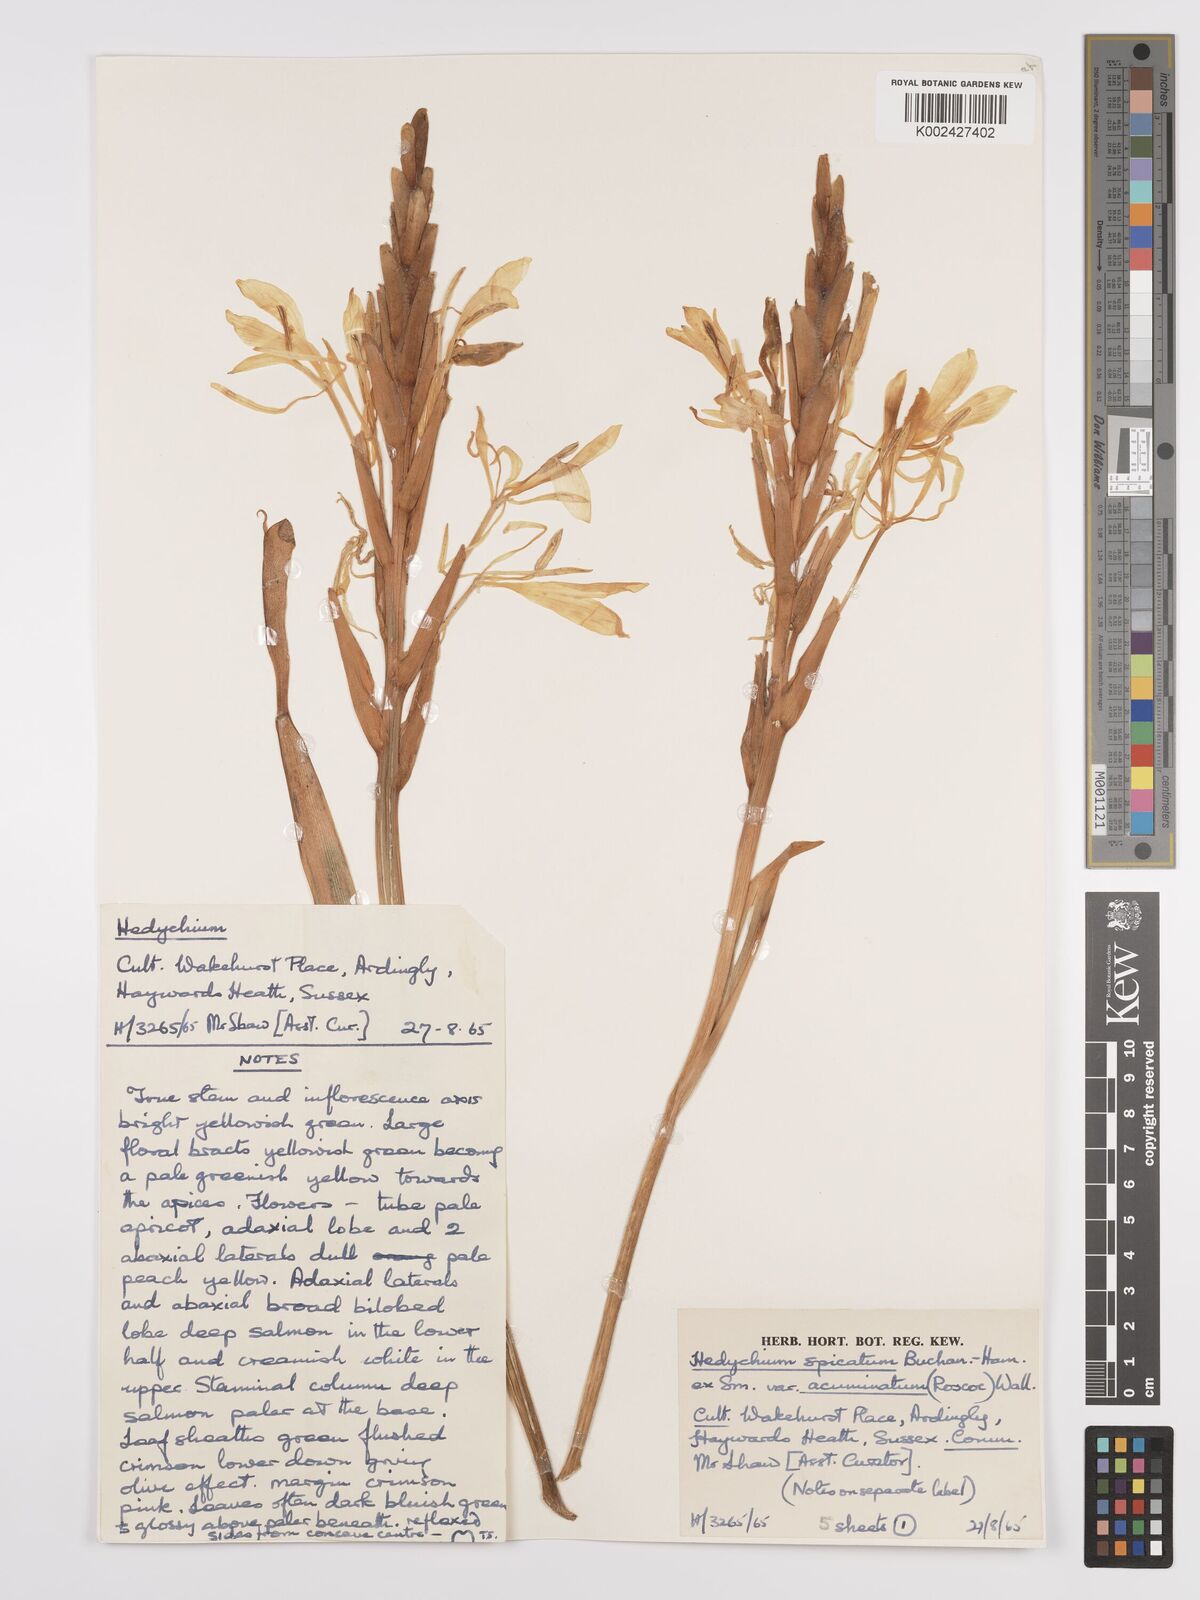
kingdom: Plantae
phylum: Tracheophyta
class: Liliopsida
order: Zingiberales
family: Zingiberaceae
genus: Hedychium
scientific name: Hedychium
